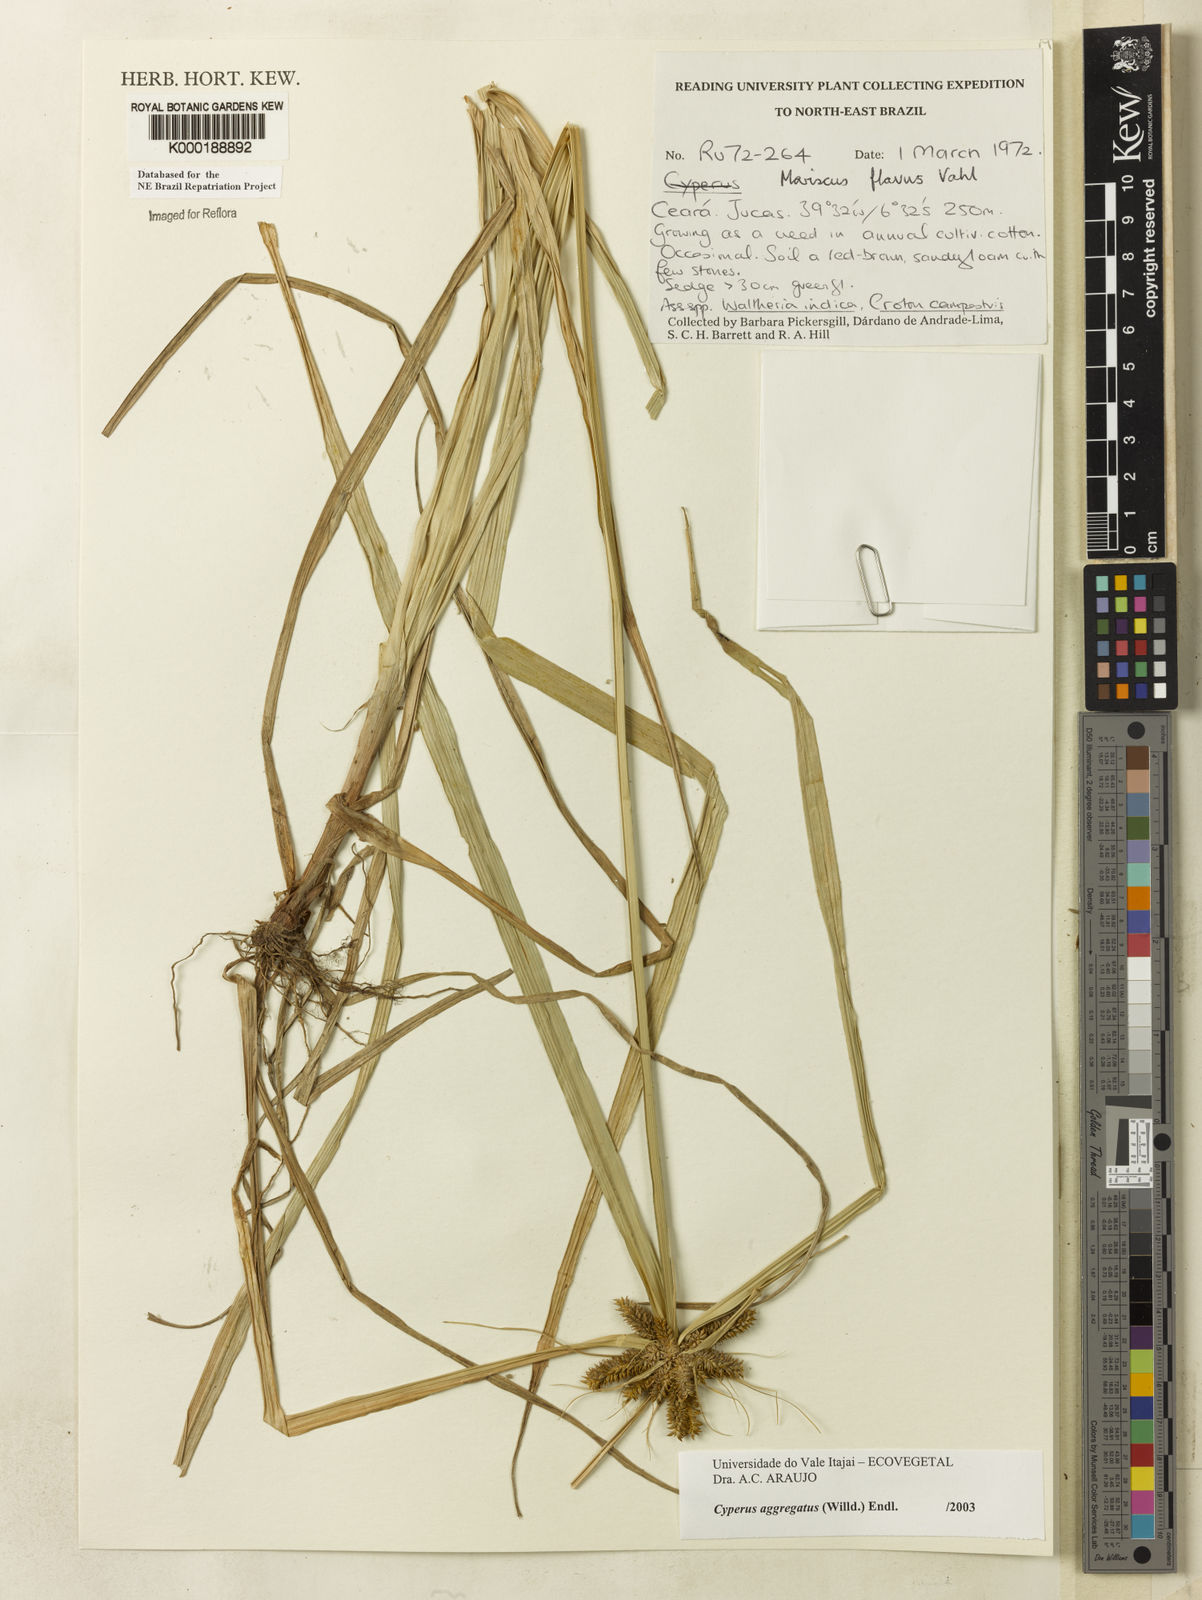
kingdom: Plantae
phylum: Tracheophyta
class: Liliopsida
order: Poales
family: Cyperaceae
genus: Cyperus
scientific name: Cyperus aggregatus
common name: Inflatedscale flatsedge
